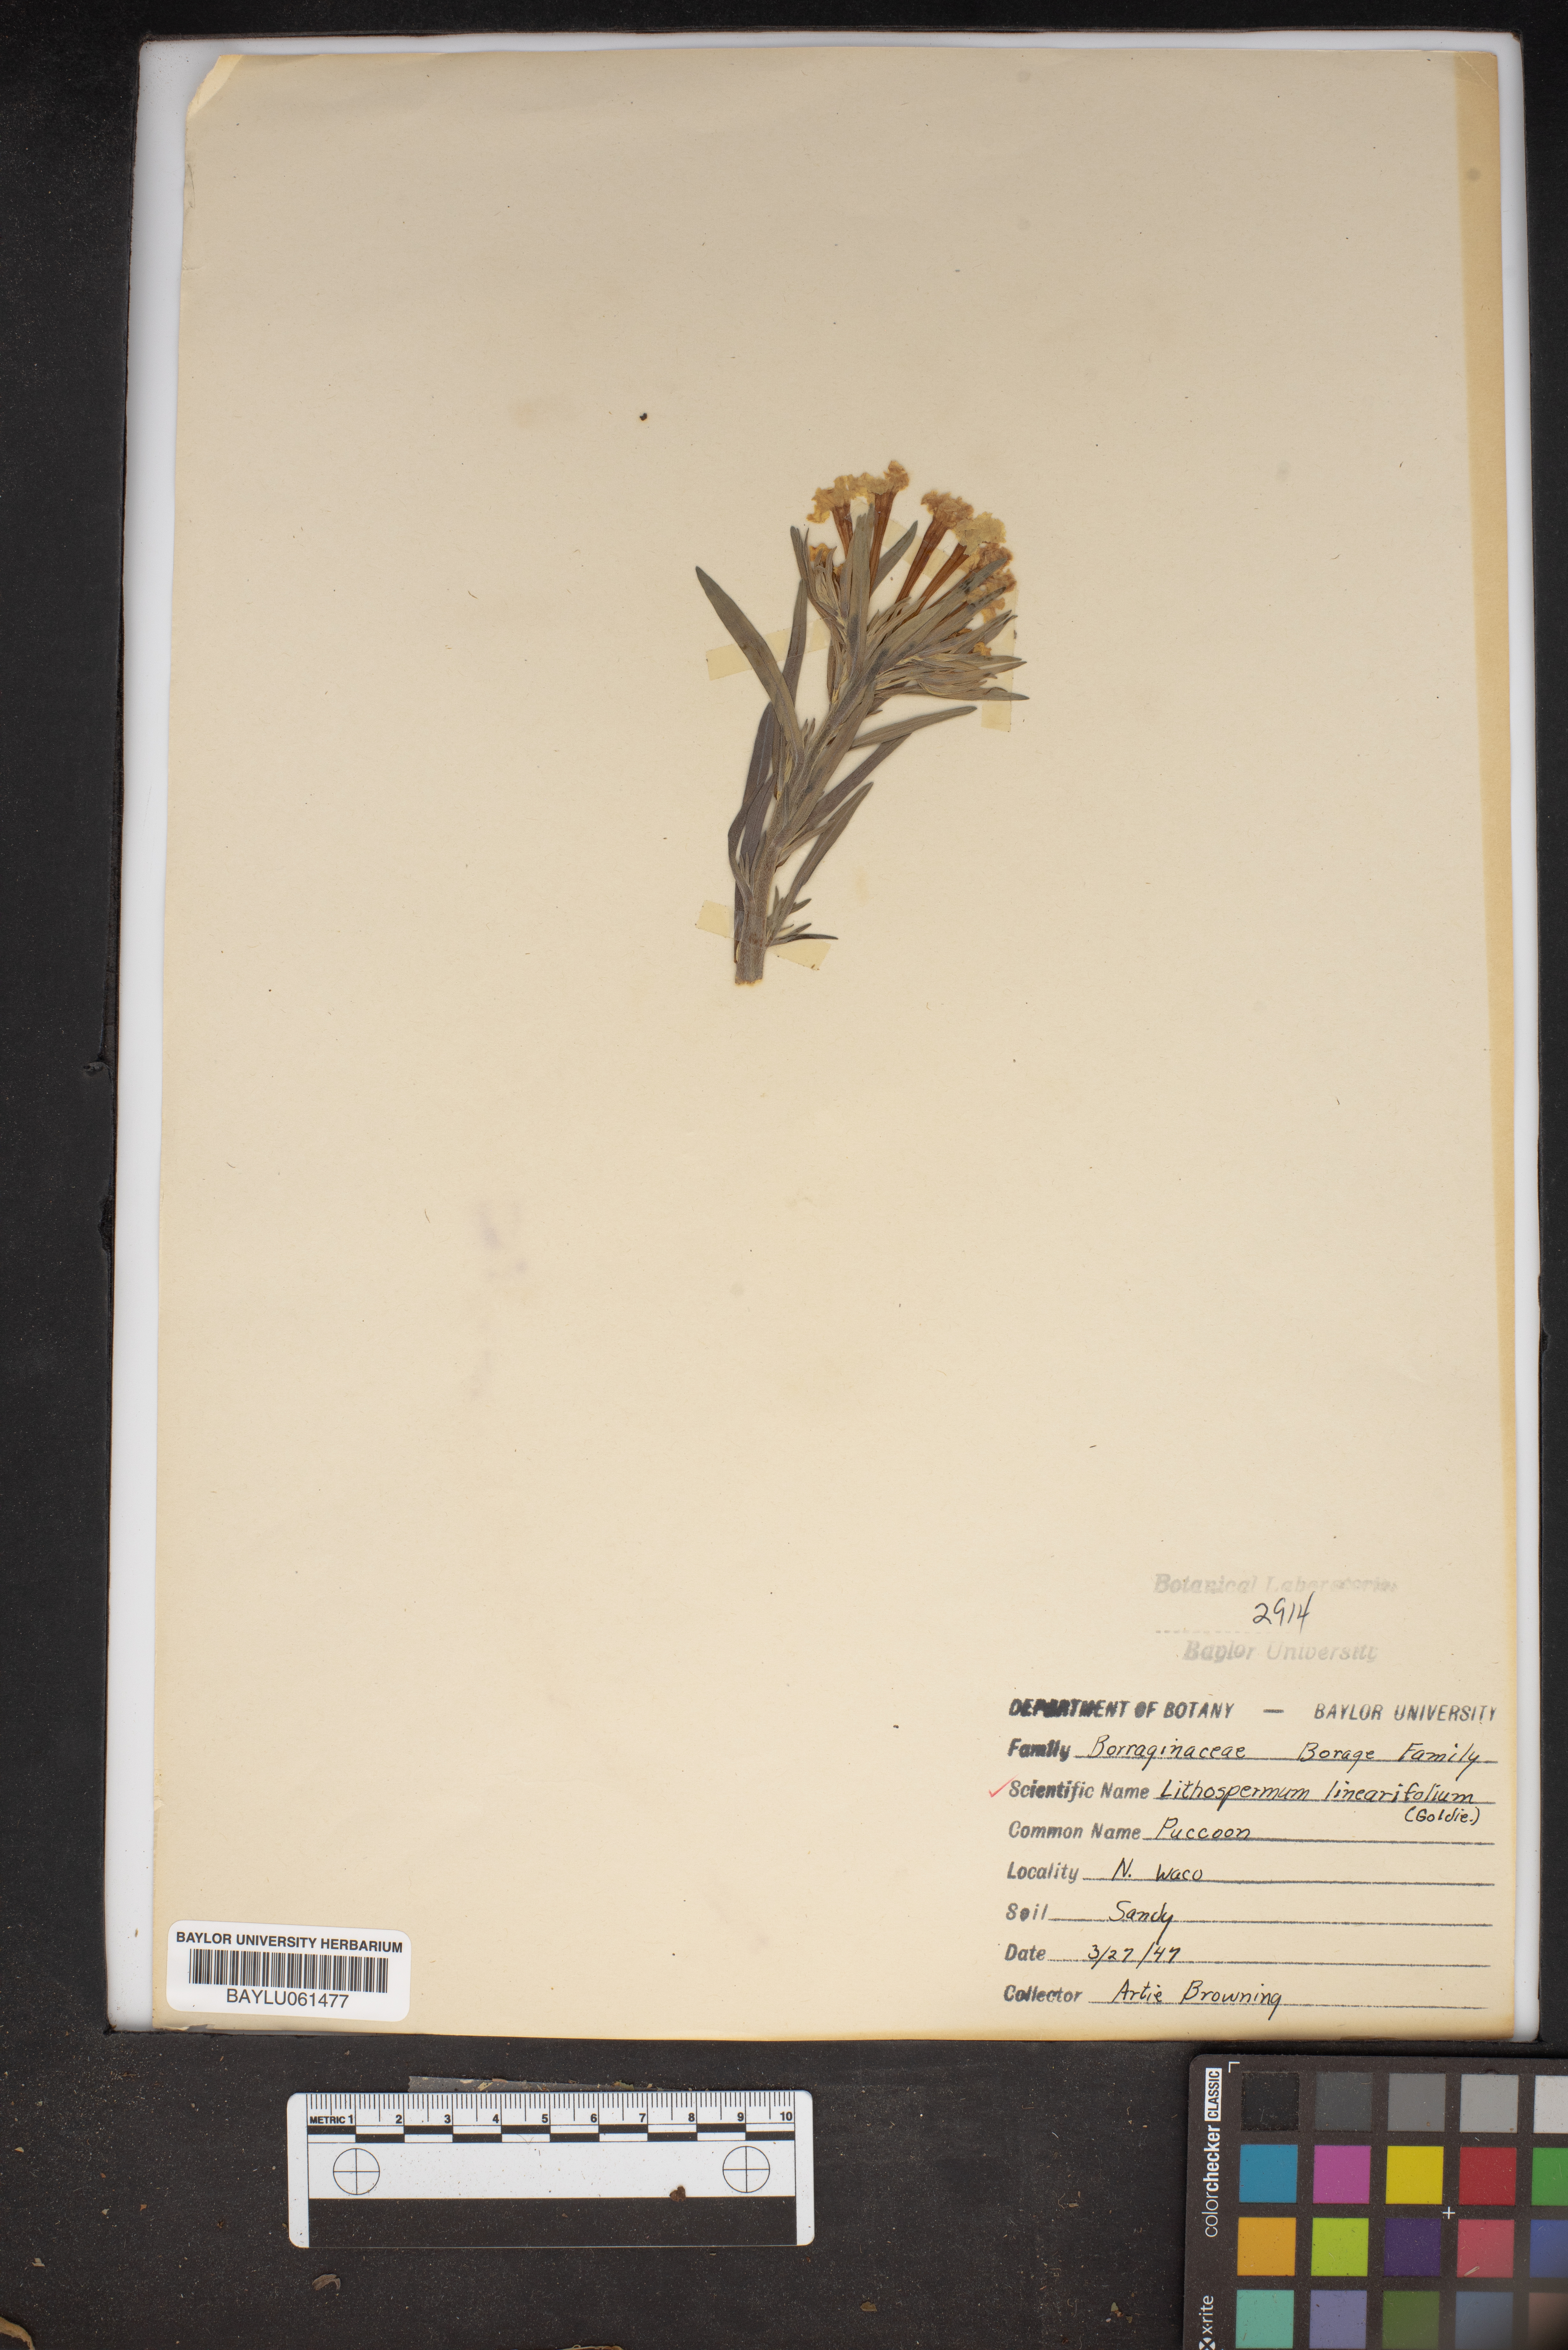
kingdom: Plantae
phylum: Tracheophyta
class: Magnoliopsida
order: Boraginales
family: Boraginaceae
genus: Lithospermum
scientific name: Lithospermum incisum
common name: Fringed gromwell
